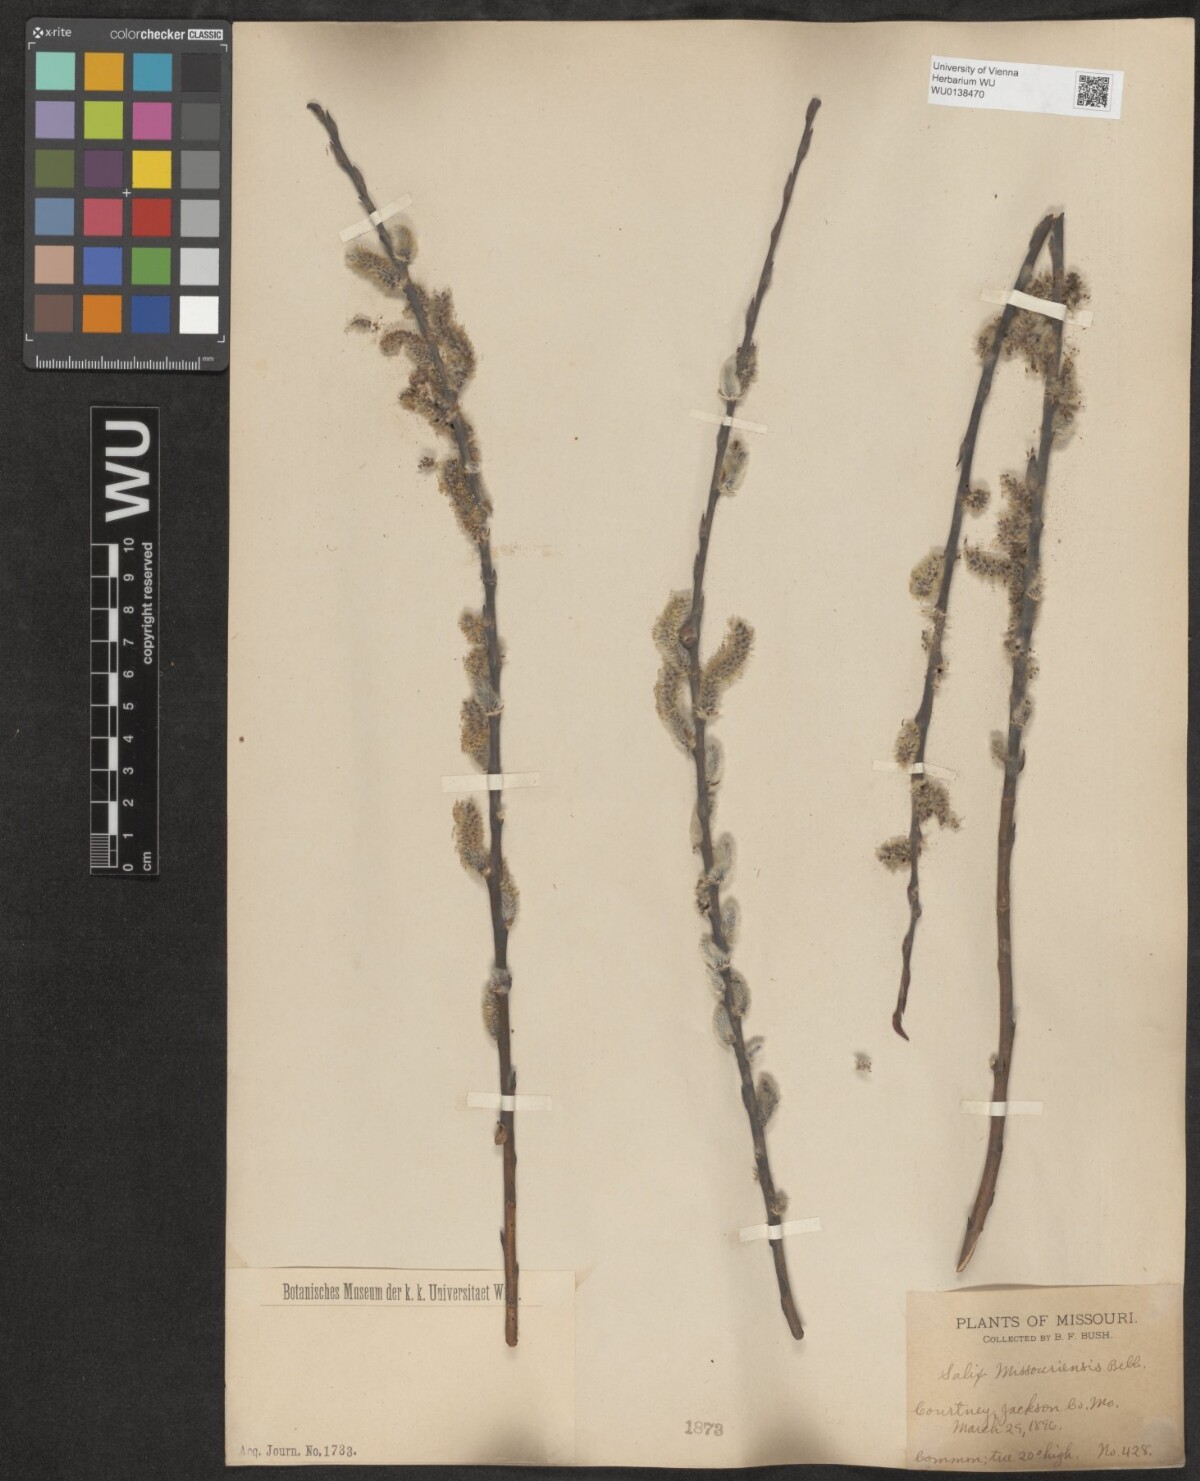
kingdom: Plantae
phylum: Tracheophyta
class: Magnoliopsida
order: Malpighiales
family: Salicaceae
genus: Salix
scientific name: Salix eriocephala
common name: Heart-leaved willow
